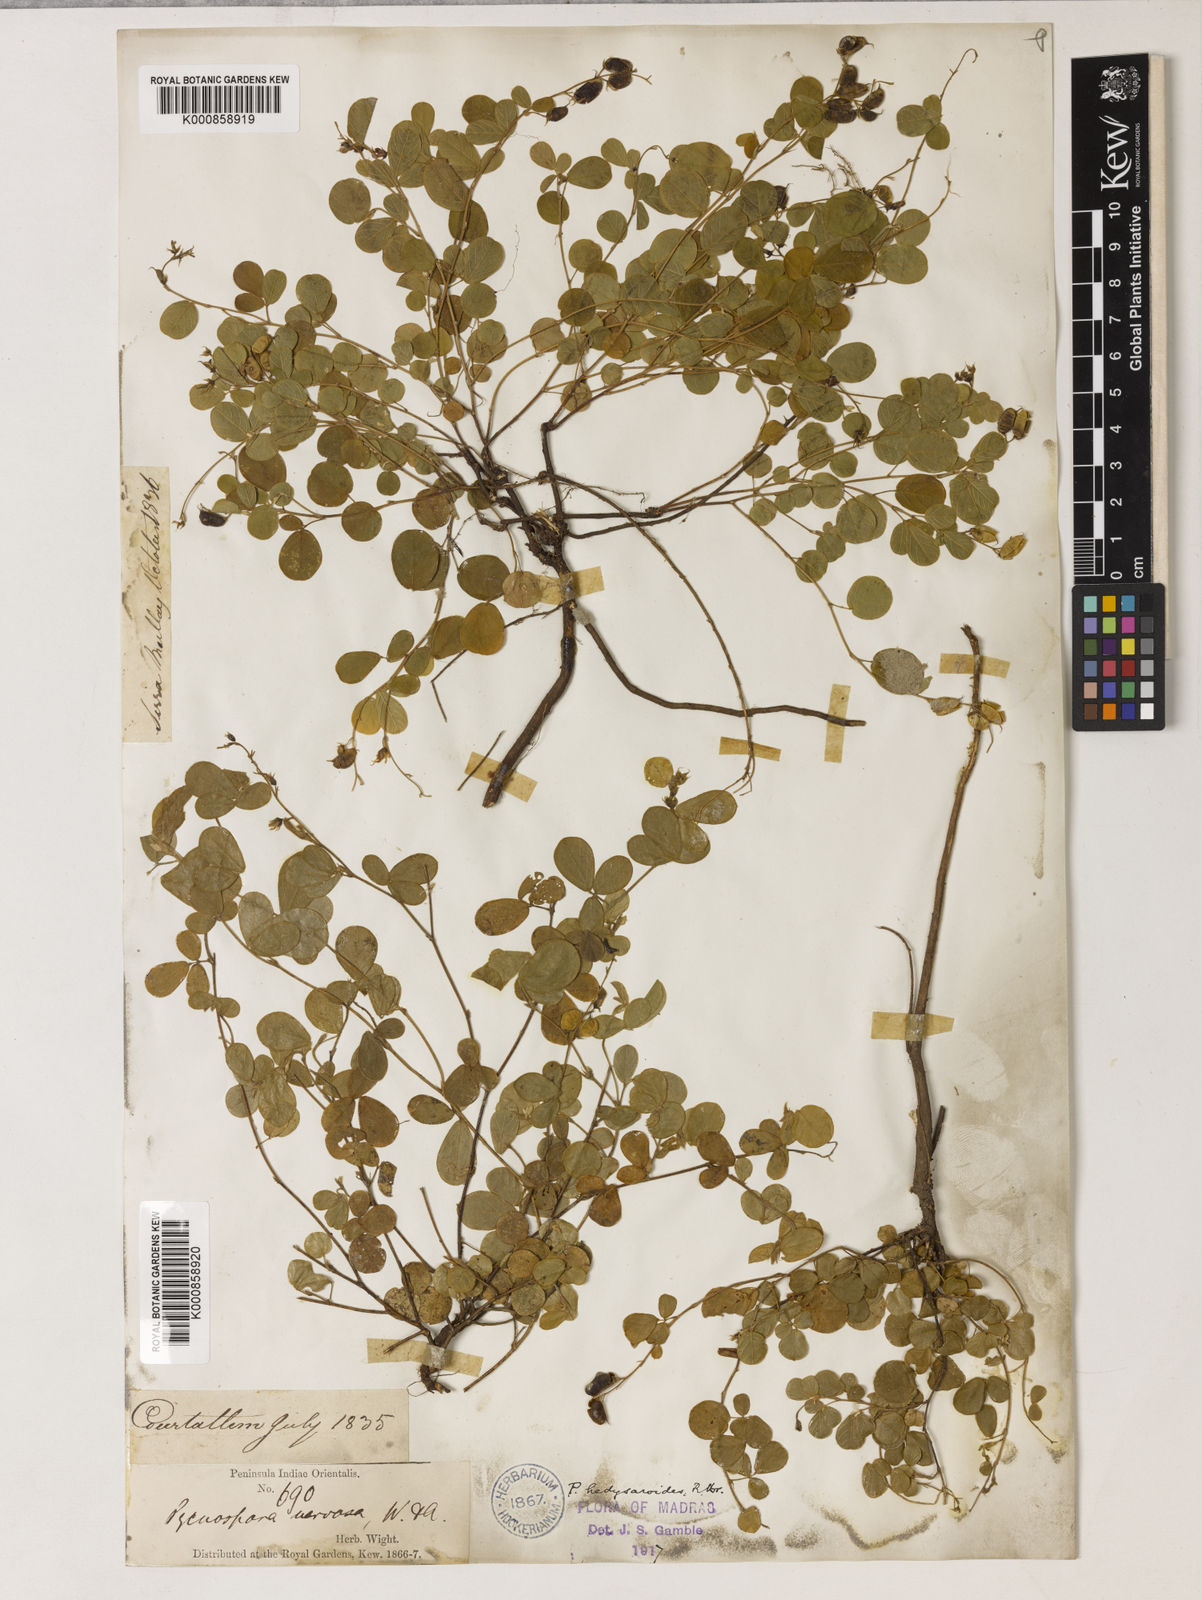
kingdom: Plantae
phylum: Tracheophyta
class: Magnoliopsida
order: Fabales
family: Fabaceae
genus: Pycnospora
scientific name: Pycnospora lutescens
